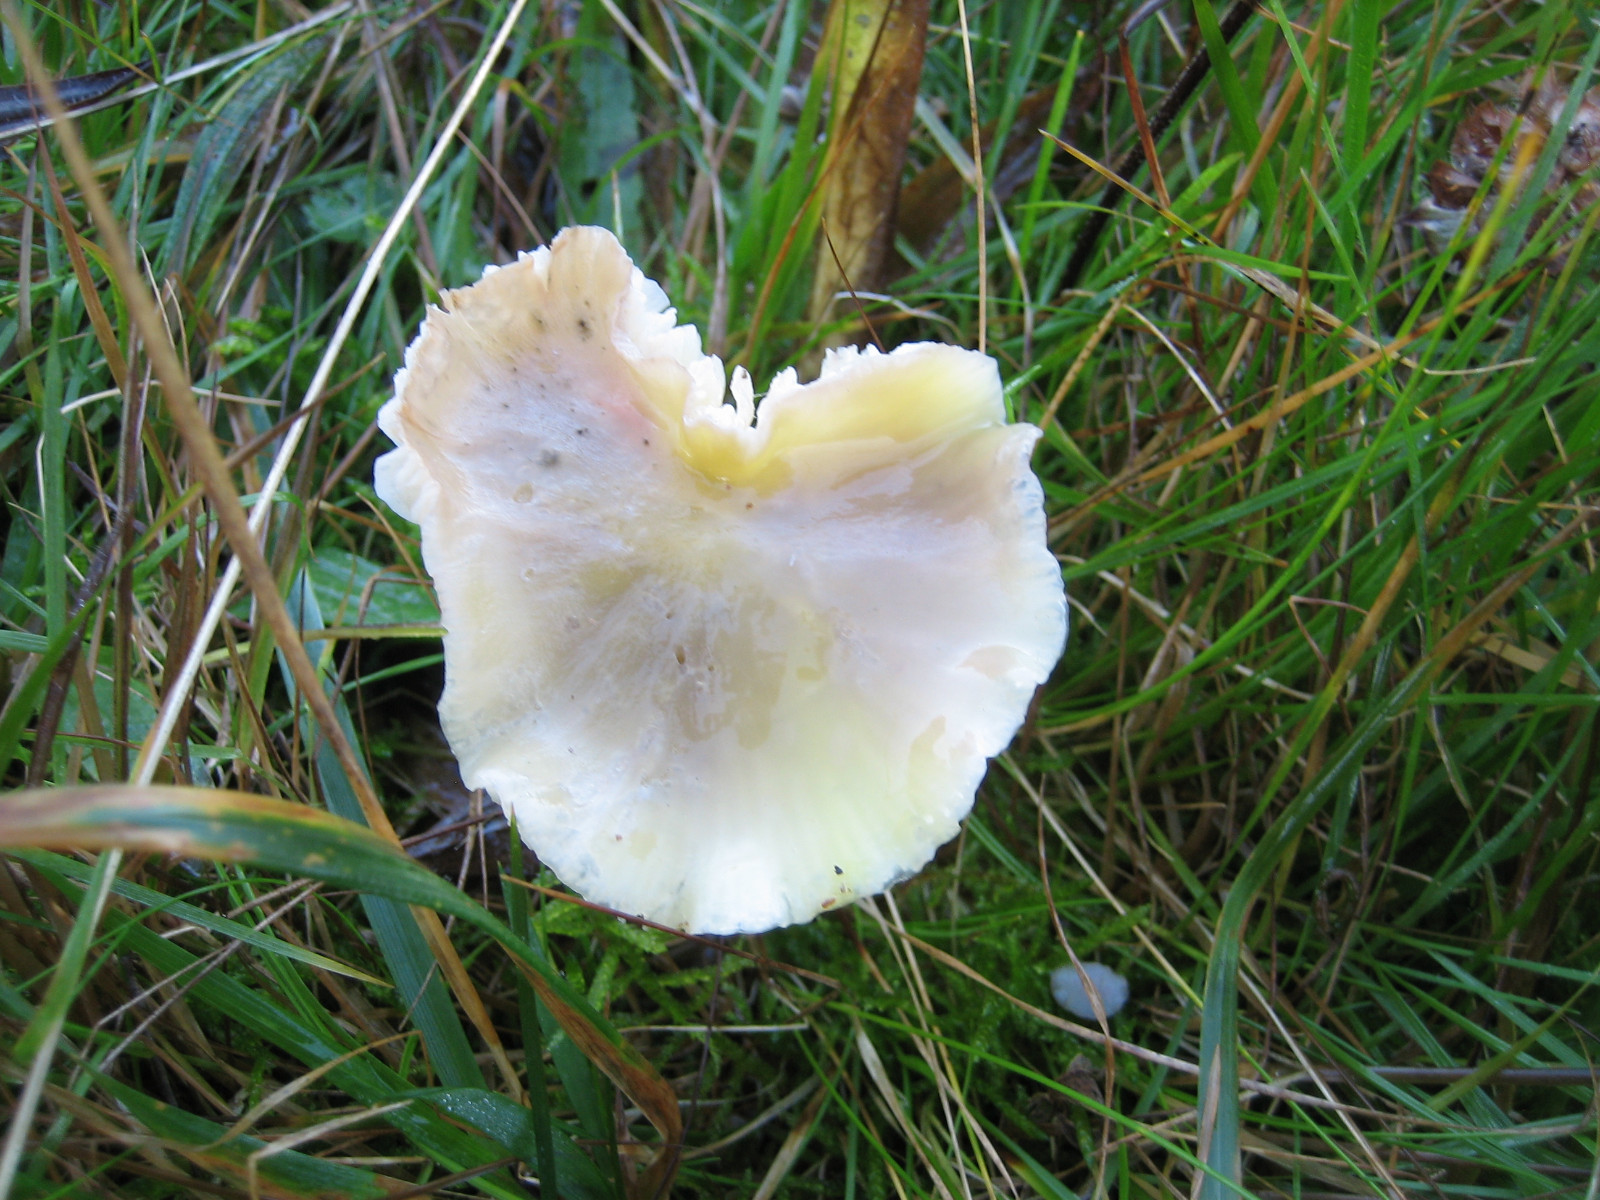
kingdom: Fungi
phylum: Basidiomycota
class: Agaricomycetes
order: Agaricales
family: Hygrophoraceae
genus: Hygrocybe
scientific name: Hygrocybe chlorophana
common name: gul vokshat
